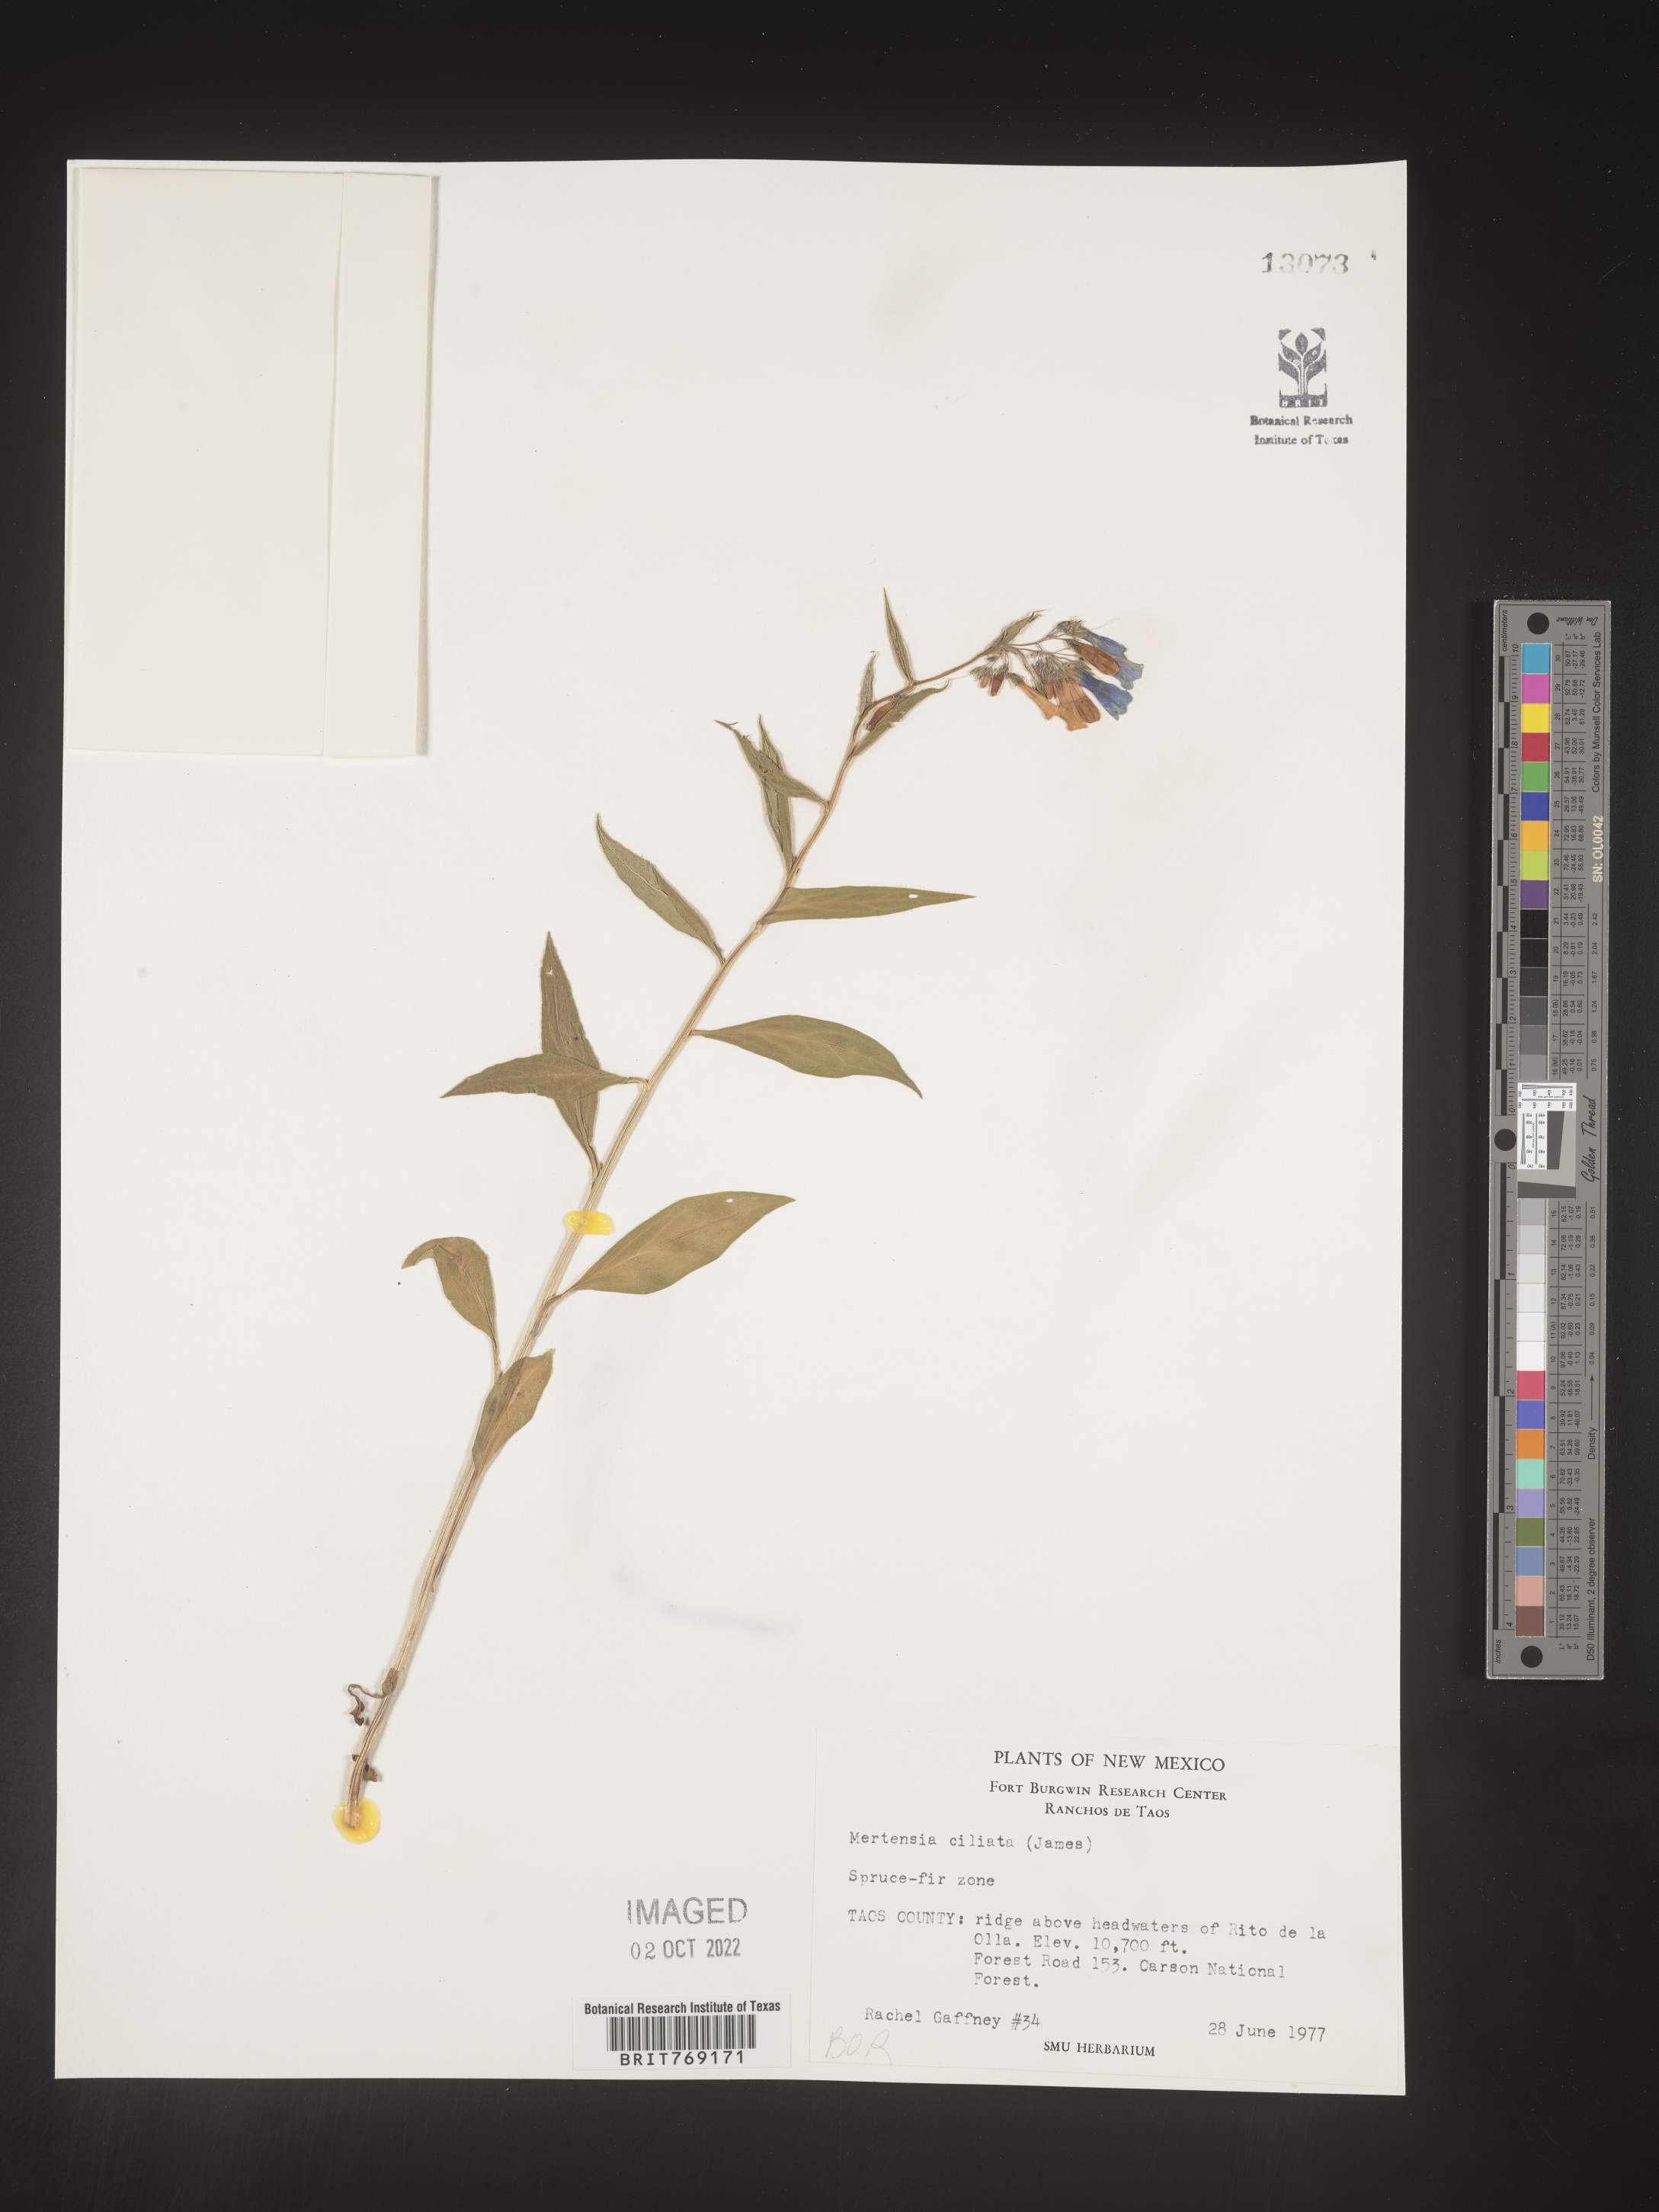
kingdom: Plantae
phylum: Tracheophyta
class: Magnoliopsida
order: Boraginales
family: Boraginaceae
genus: Mertensia
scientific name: Mertensia
